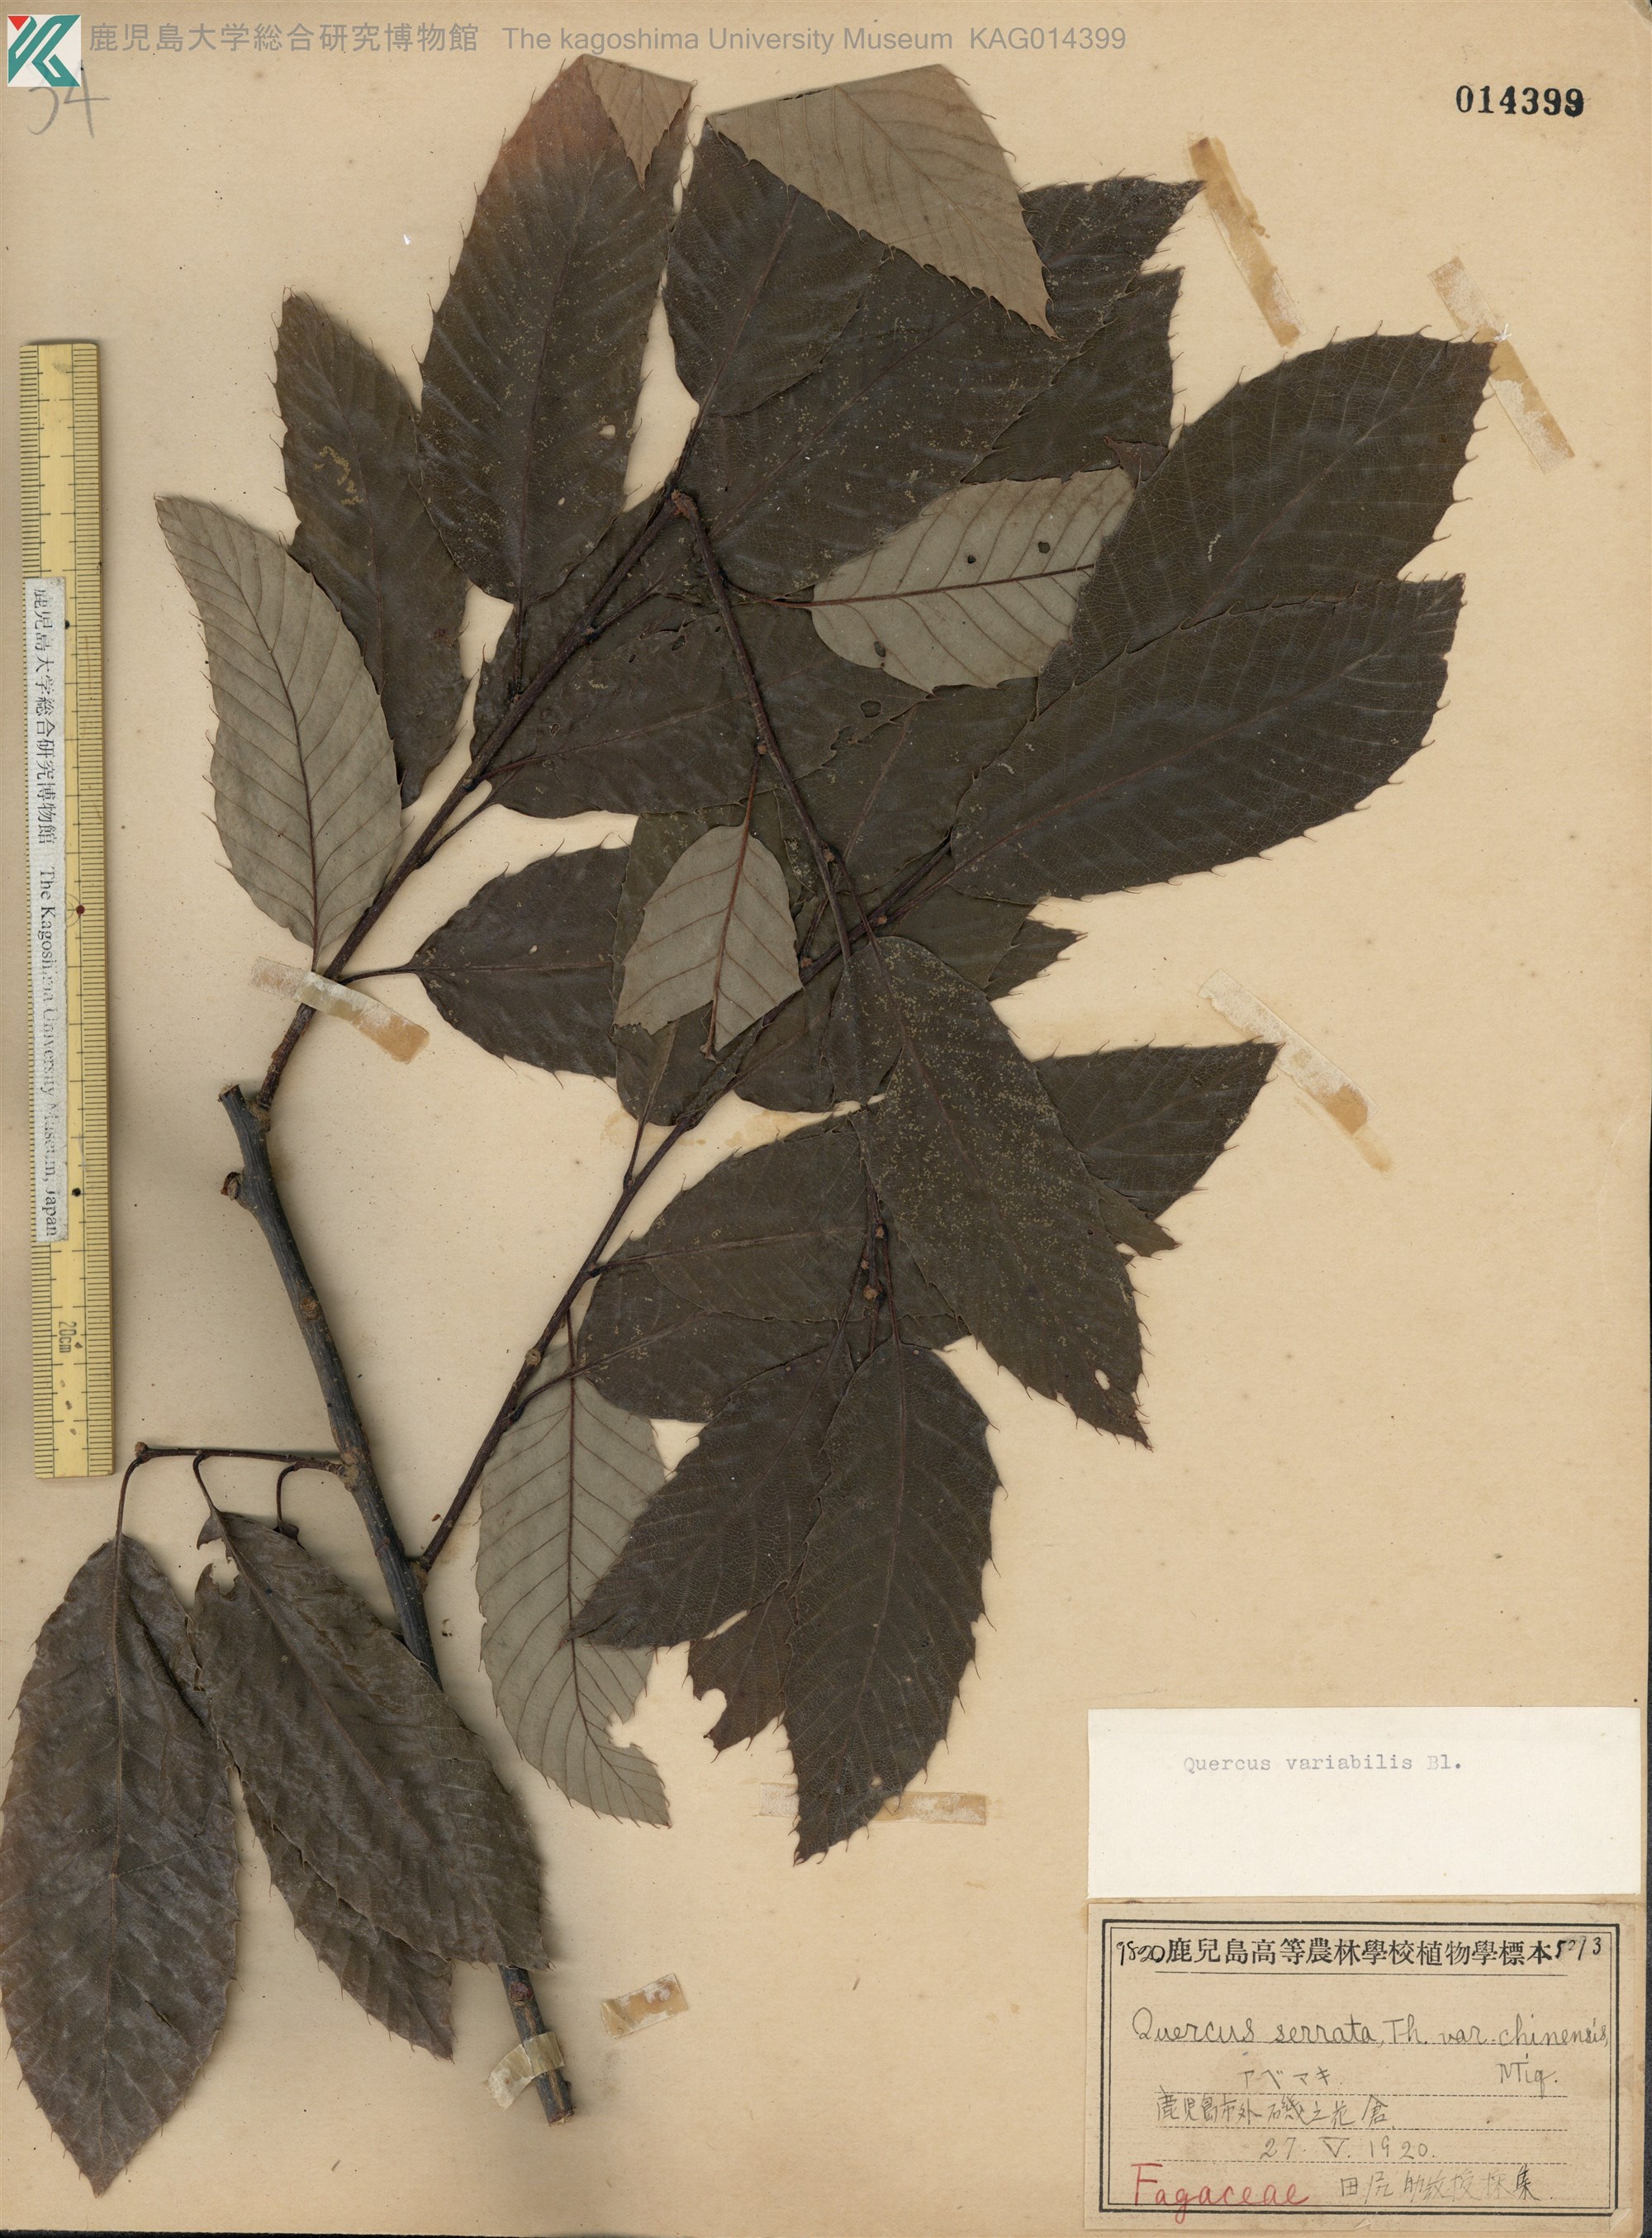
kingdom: Plantae
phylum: Tracheophyta
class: Magnoliopsida
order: Fagales
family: Fagaceae
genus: Quercus
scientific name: Quercus variabilis
